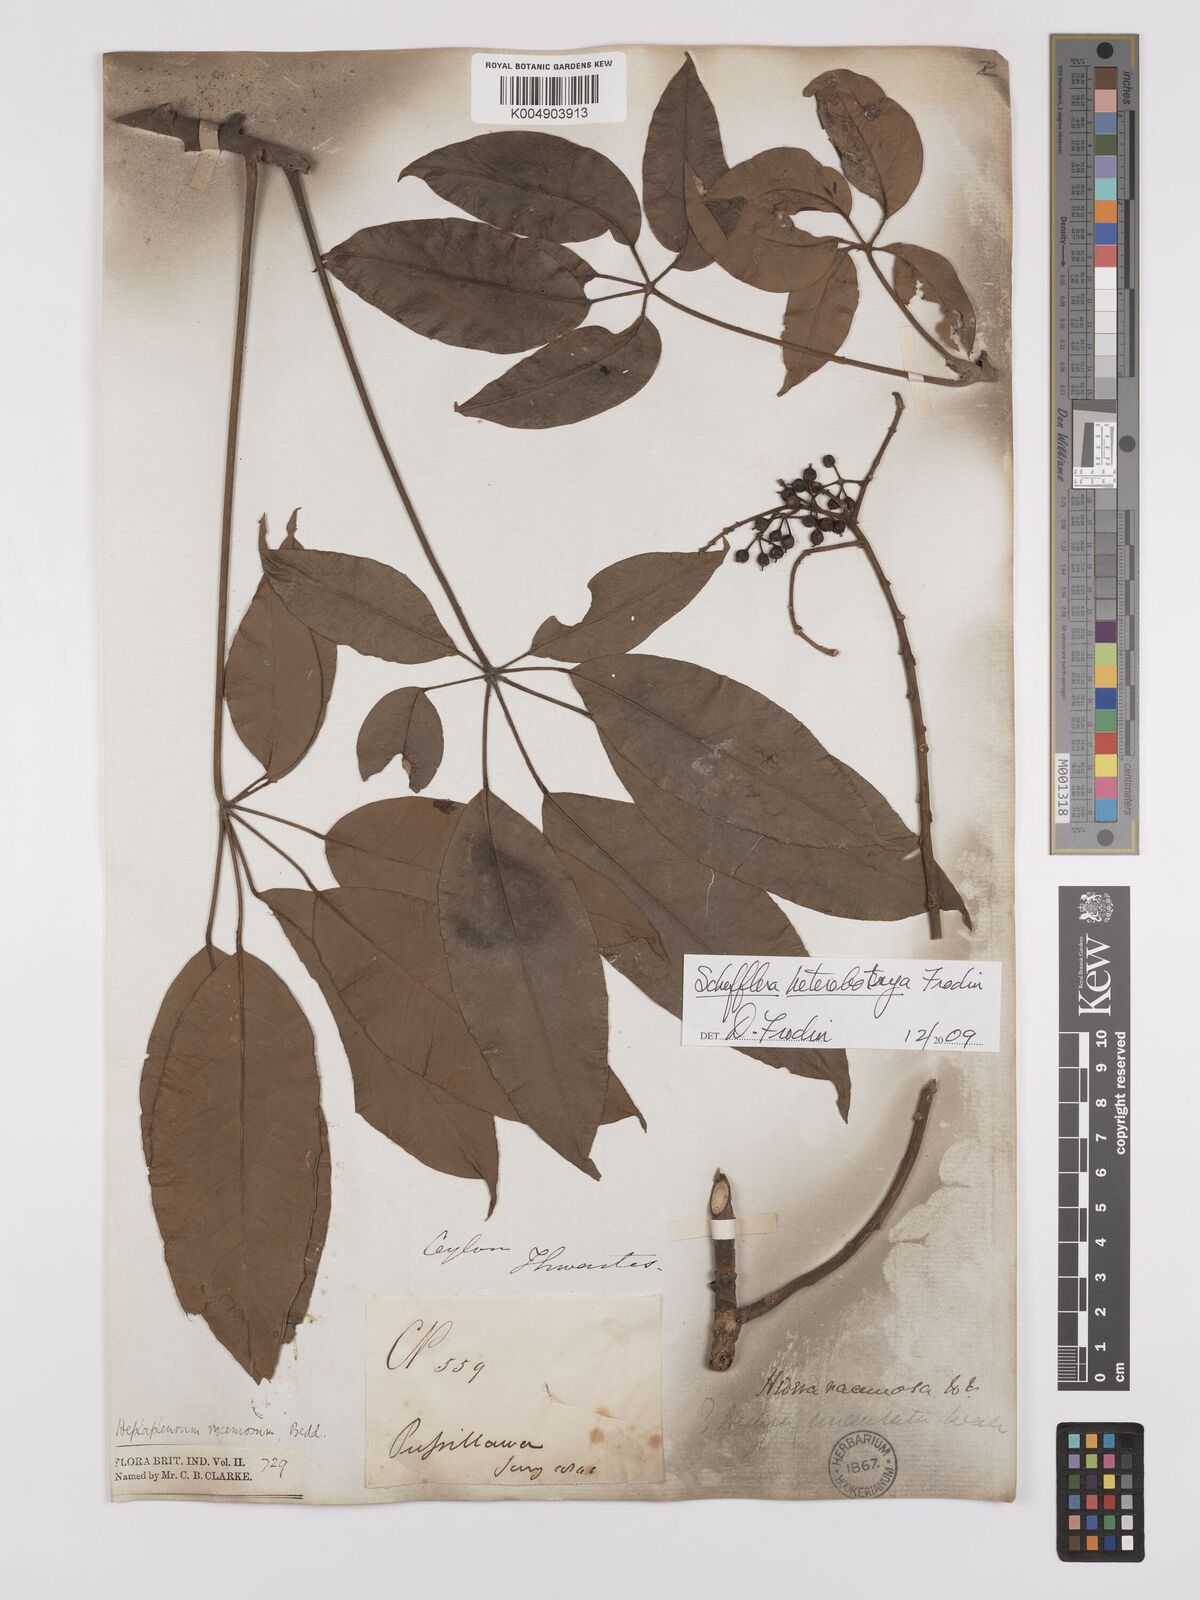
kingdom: Plantae
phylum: Tracheophyta
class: Magnoliopsida
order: Apiales
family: Araliaceae
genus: Heptapleurum
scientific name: Heptapleurum
